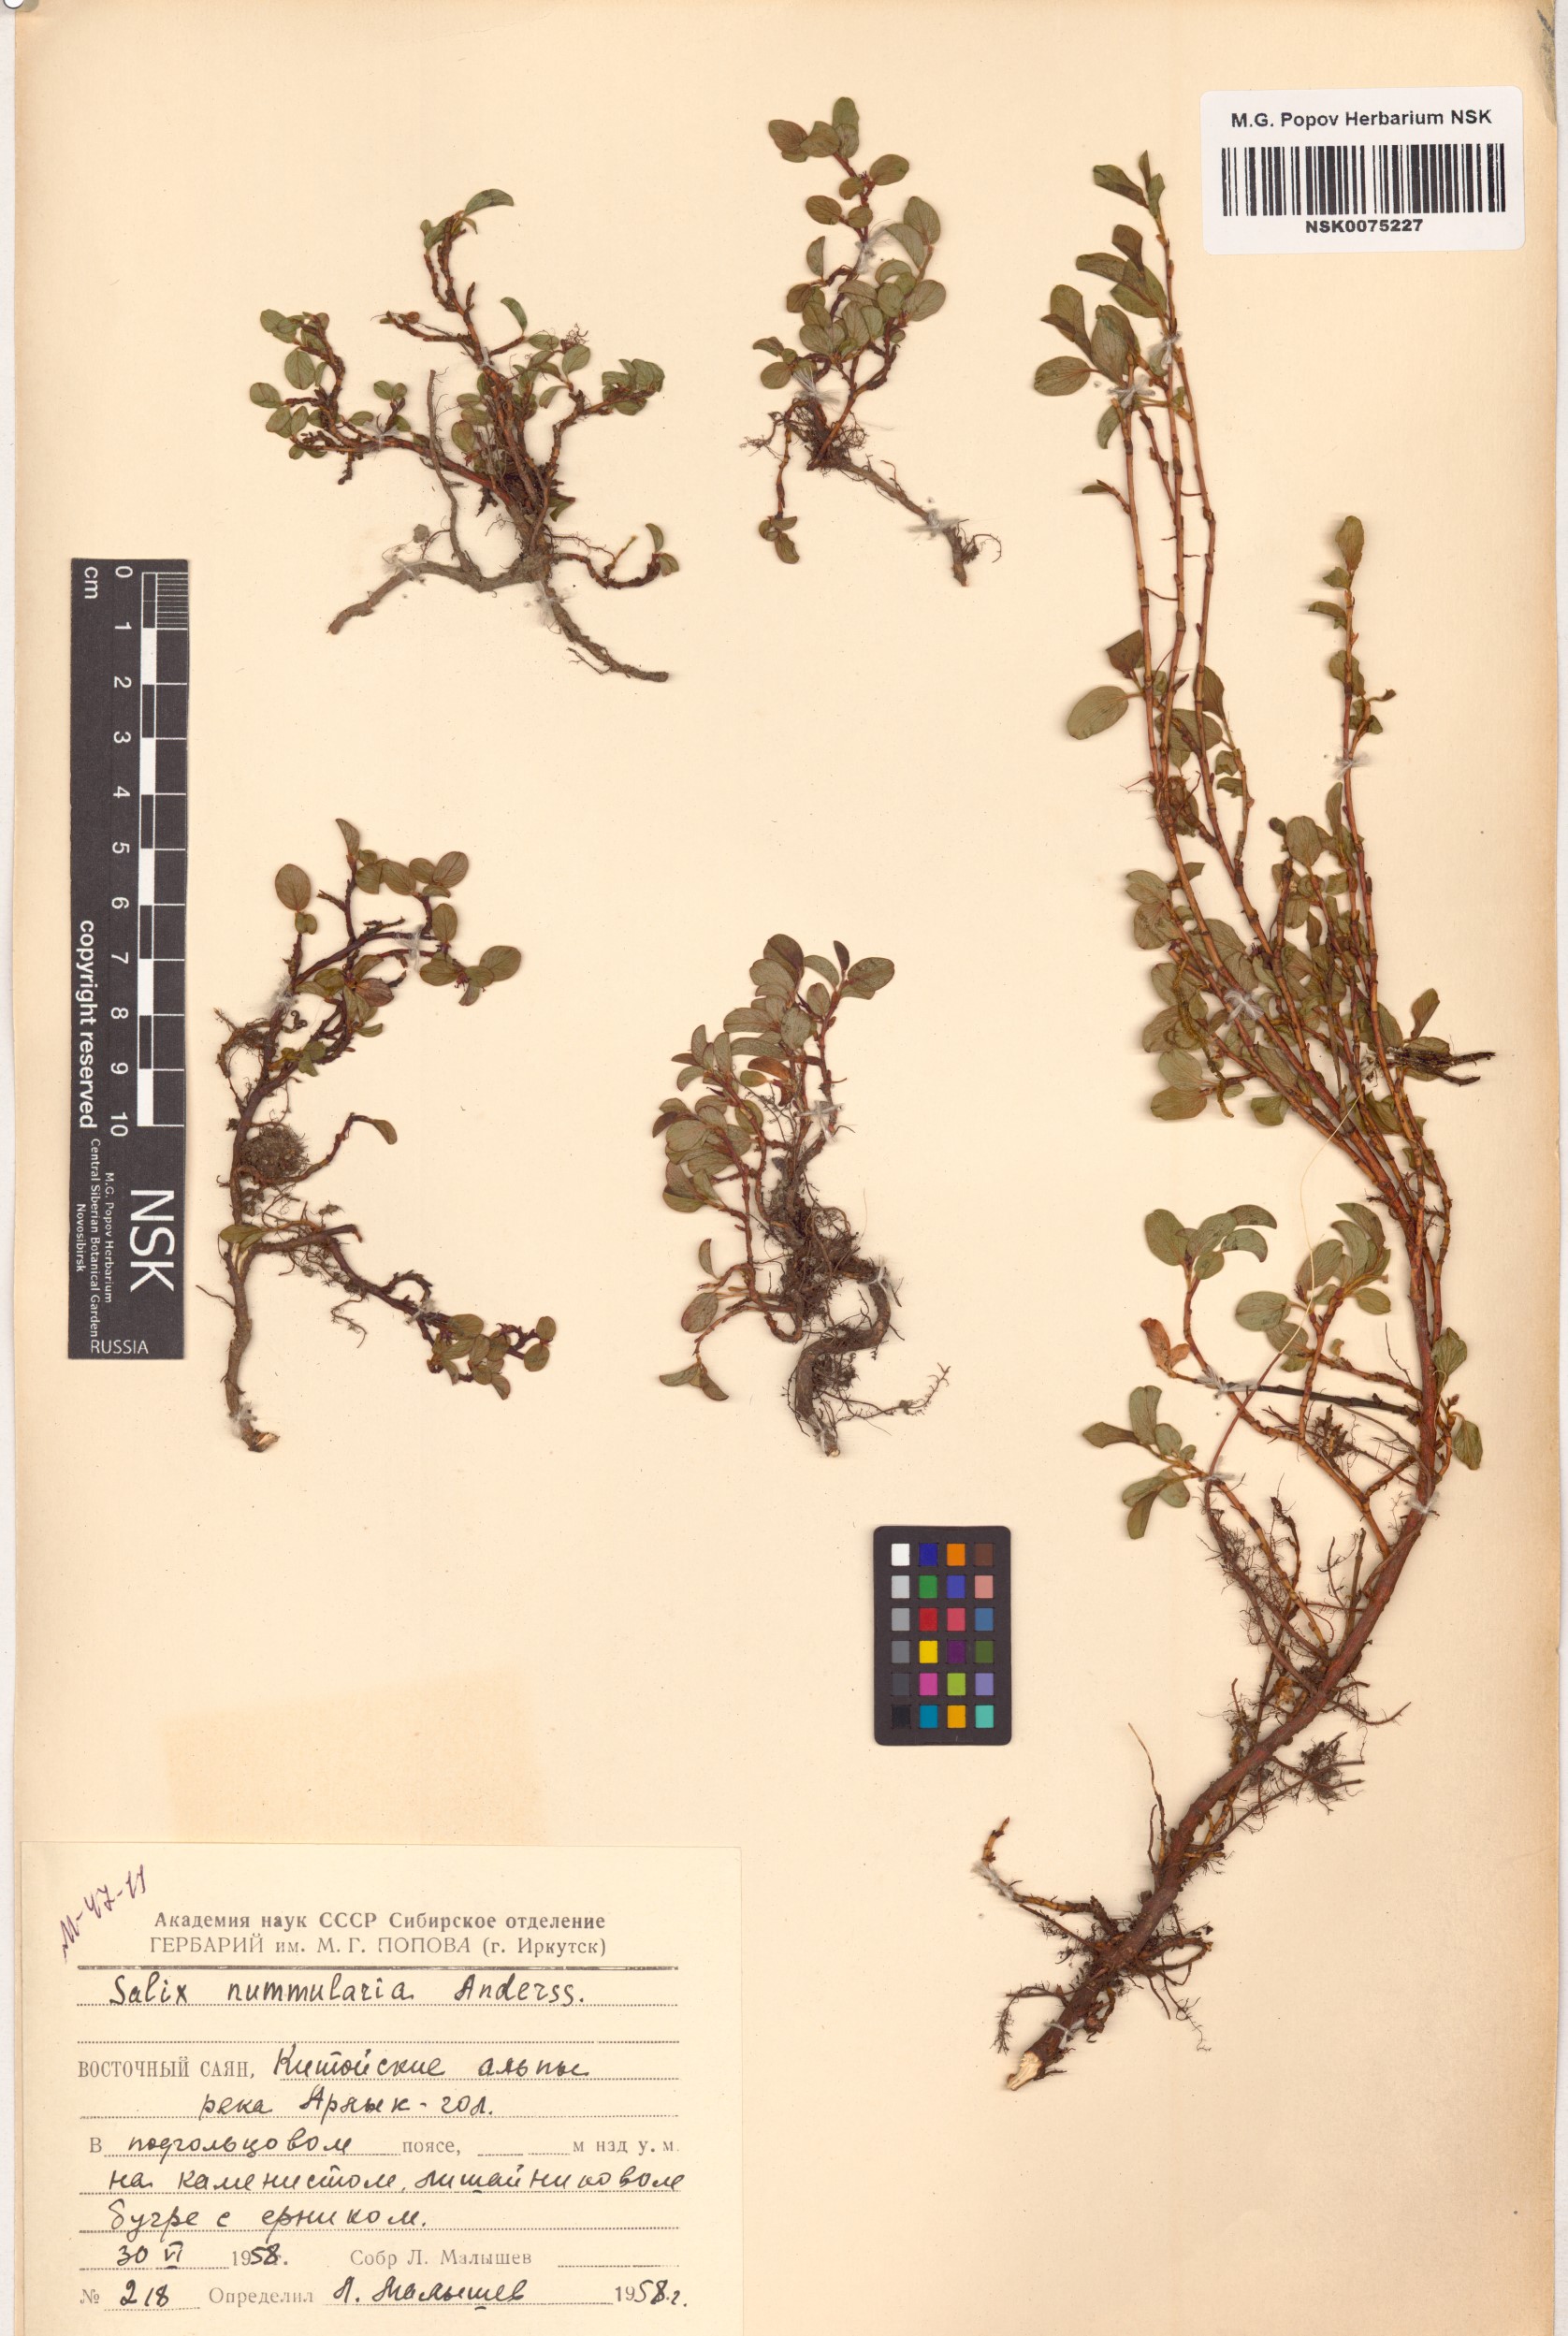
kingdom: Plantae
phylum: Tracheophyta
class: Magnoliopsida
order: Malpighiales
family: Salicaceae
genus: Salix
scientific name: Salix nummularia
